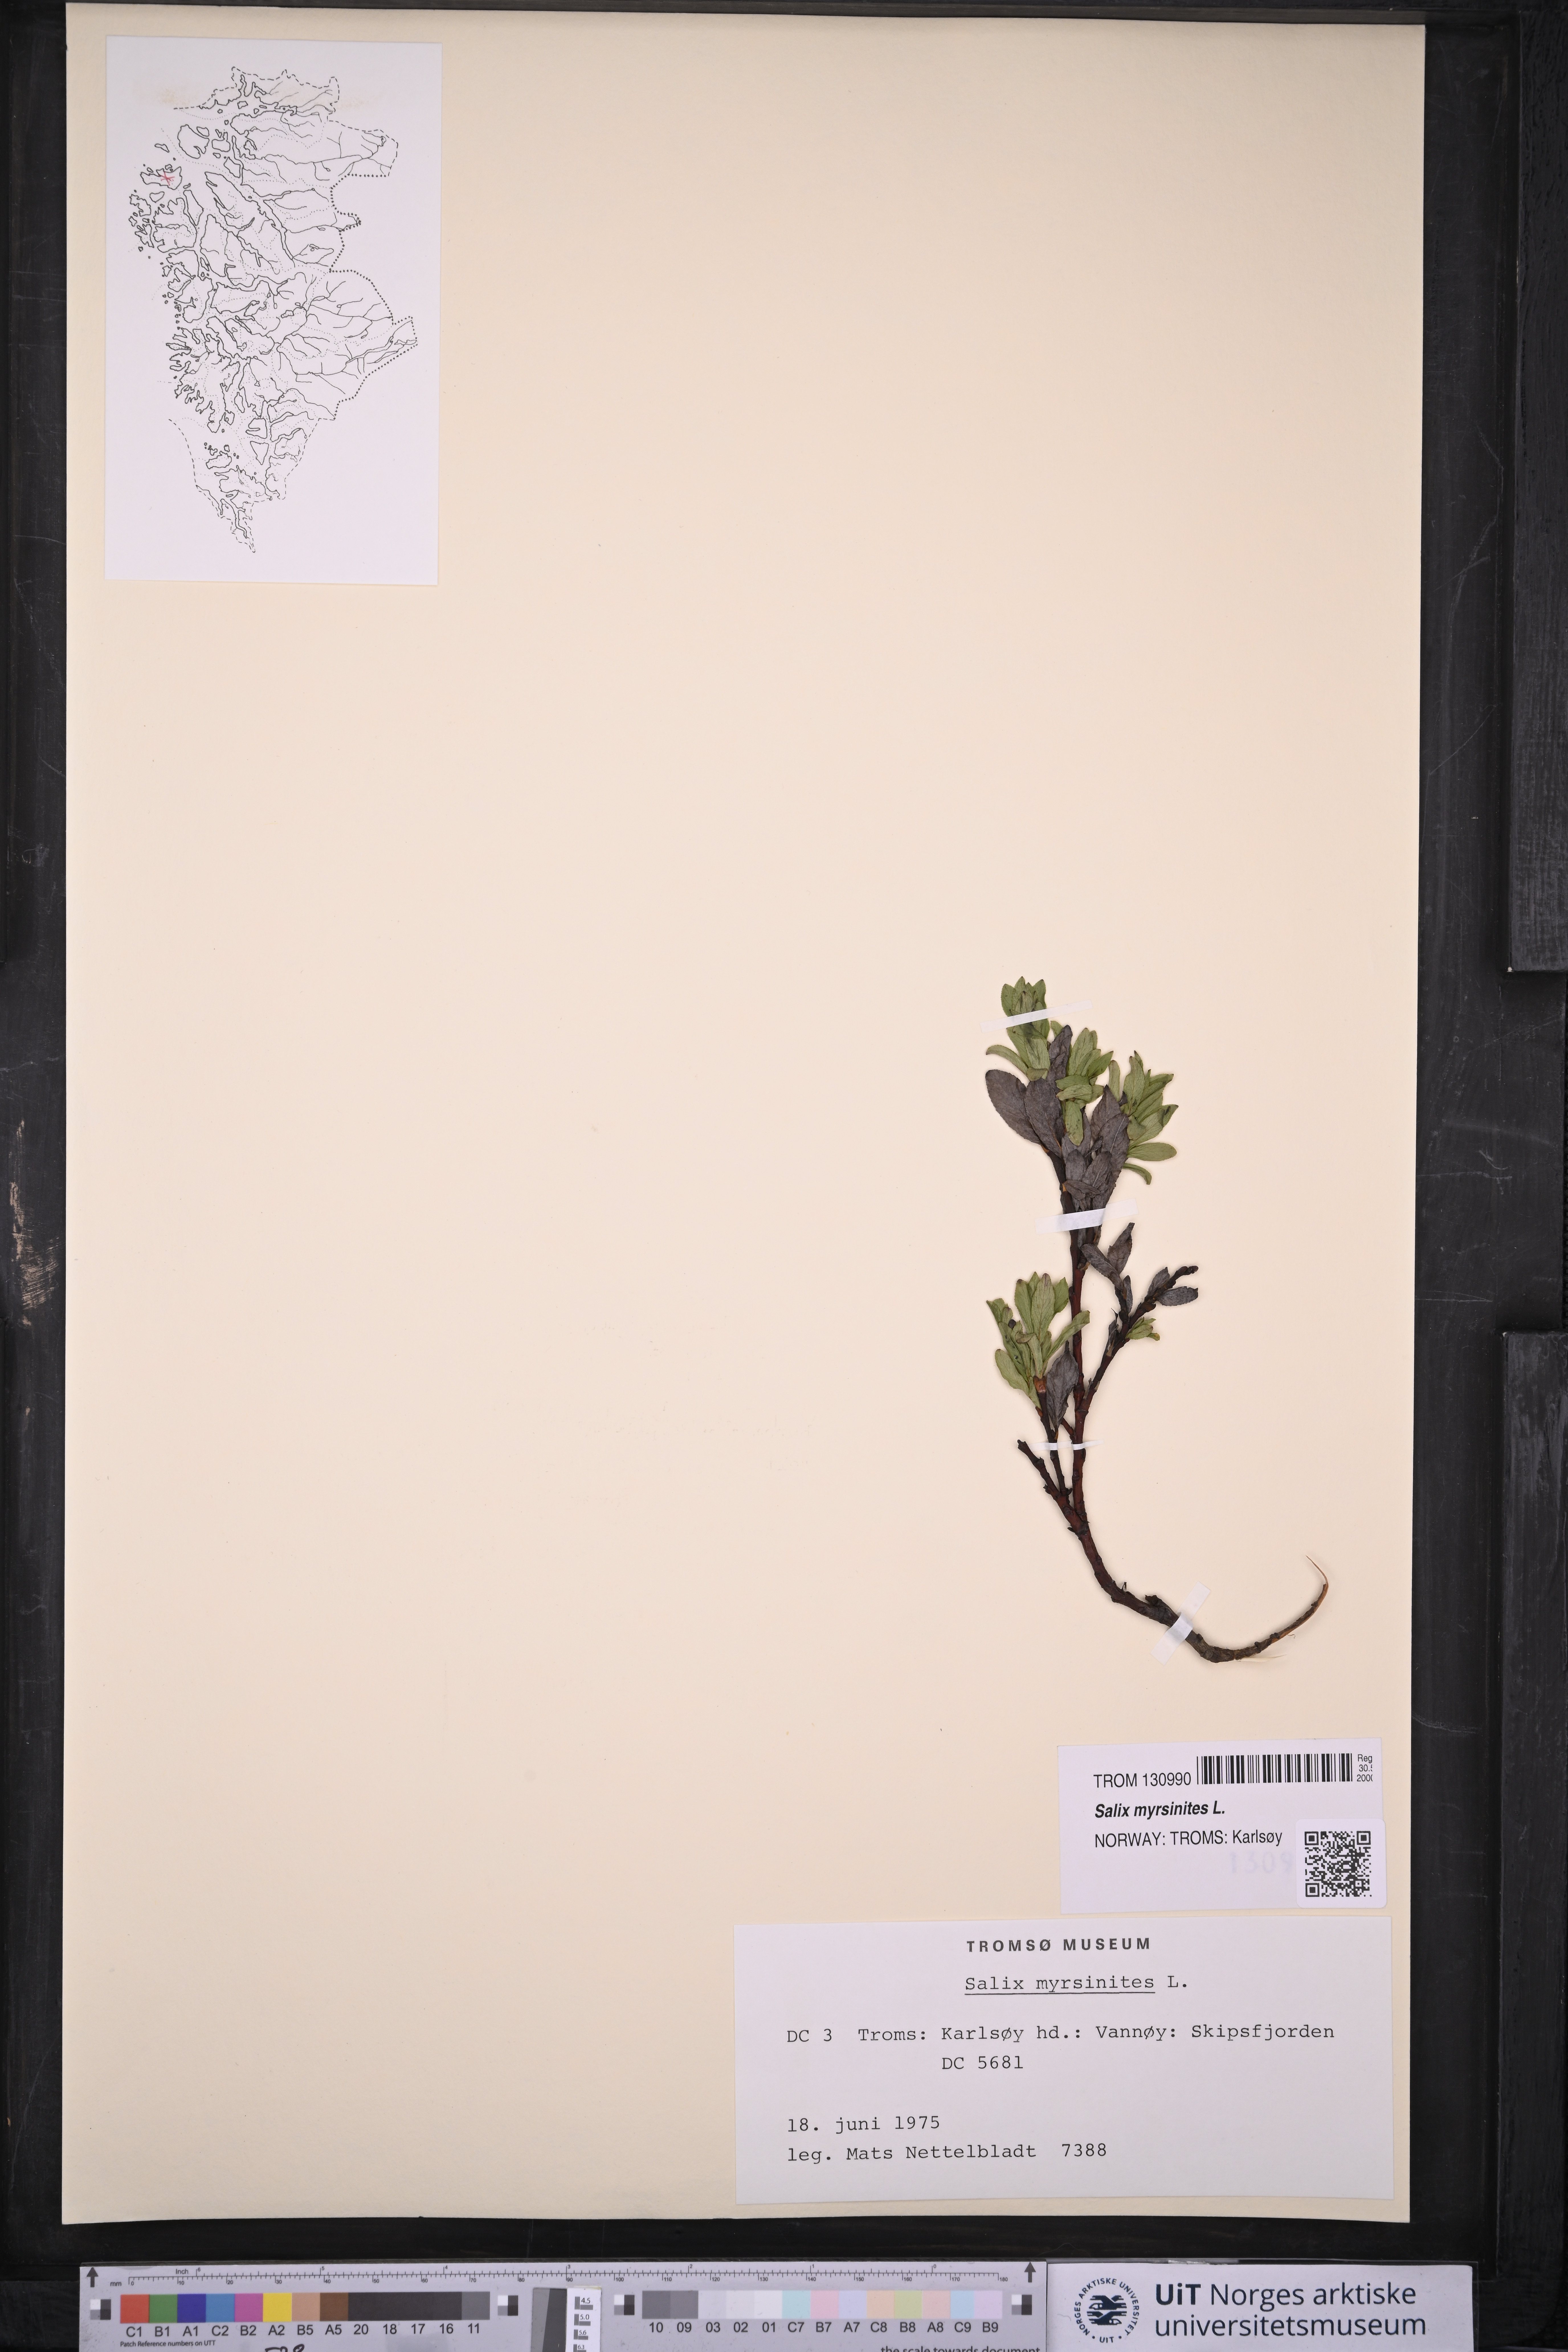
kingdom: Plantae
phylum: Tracheophyta
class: Magnoliopsida
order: Malpighiales
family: Salicaceae
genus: Salix
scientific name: Salix myrsinites
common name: Myrtle willow
